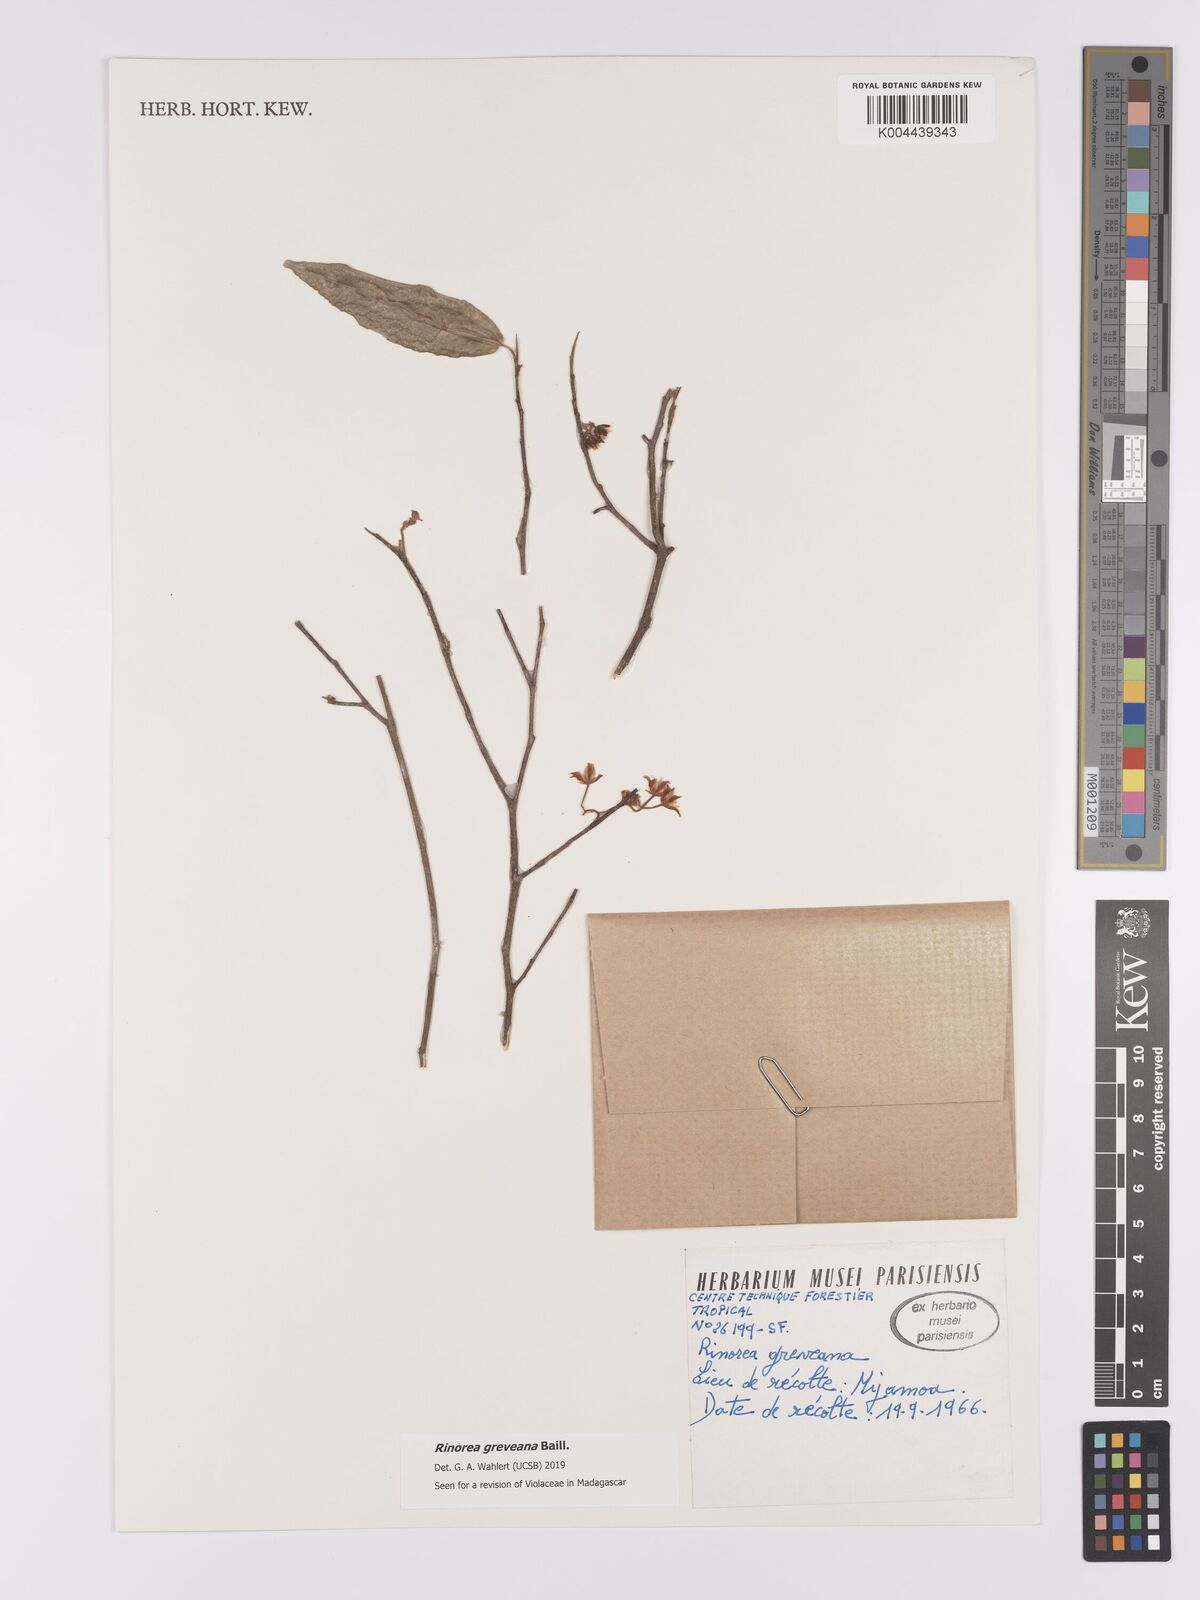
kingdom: Plantae
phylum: Tracheophyta
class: Magnoliopsida
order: Malpighiales
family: Violaceae
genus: Rinorea
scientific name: Rinorea greveana
